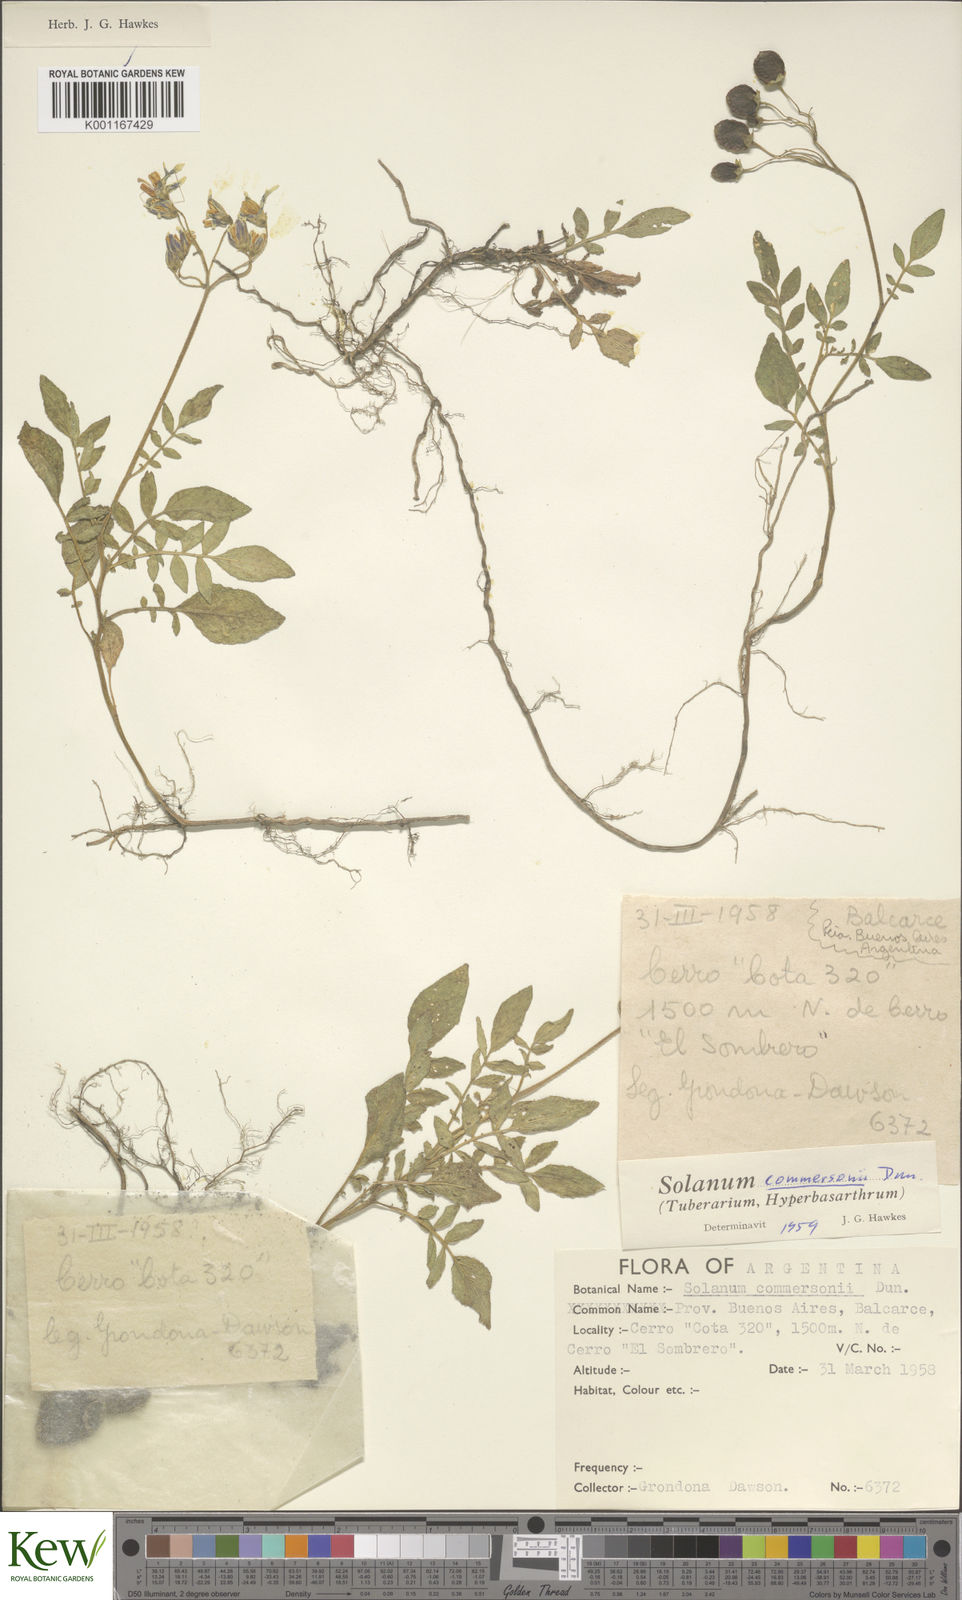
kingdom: Plantae
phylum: Tracheophyta
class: Magnoliopsida
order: Solanales
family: Solanaceae
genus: Solanum
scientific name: Solanum commersonii
